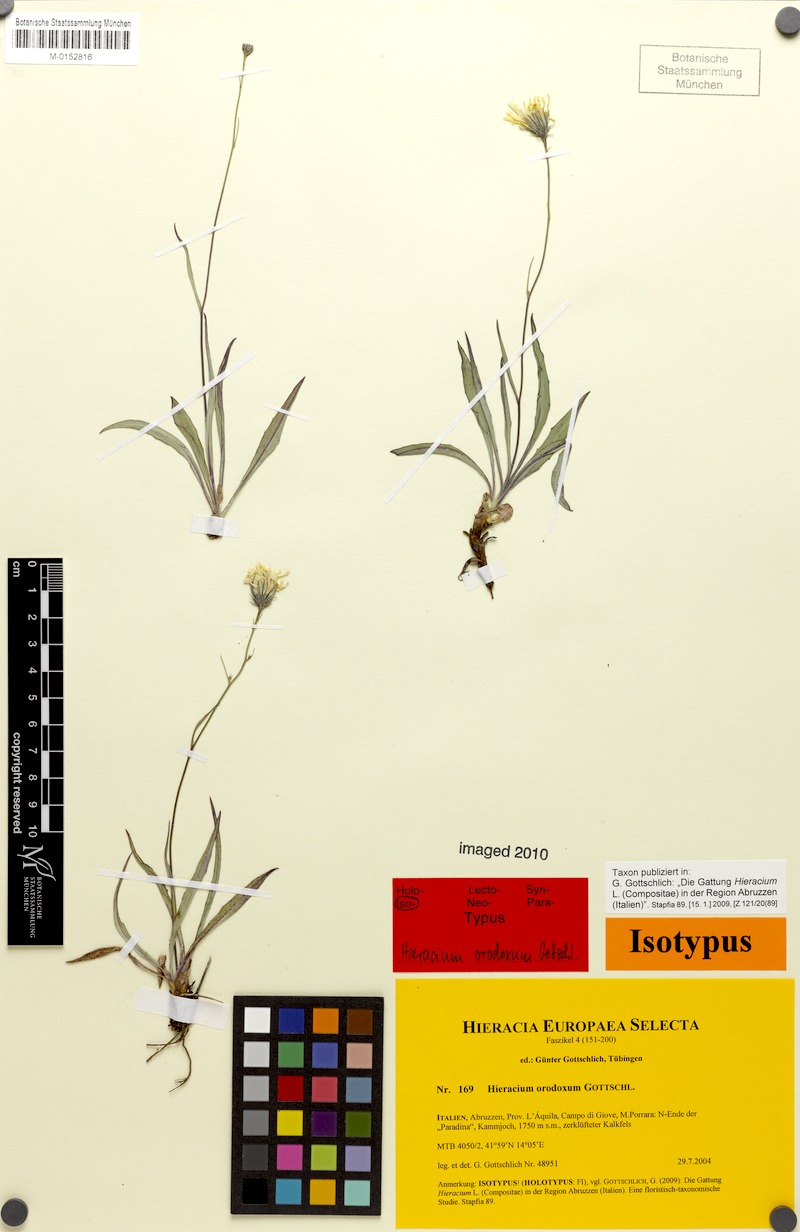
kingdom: Plantae
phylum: Tracheophyta
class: Magnoliopsida
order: Asterales
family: Asteraceae
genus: Hieracium
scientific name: Hieracium orodoxum
